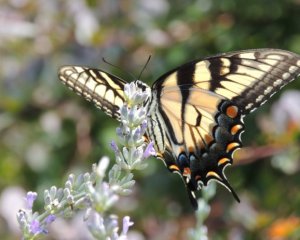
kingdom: Animalia
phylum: Arthropoda
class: Insecta
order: Lepidoptera
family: Papilionidae
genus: Pterourus
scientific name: Pterourus glaucus
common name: Eastern Tiger Swallowtail
